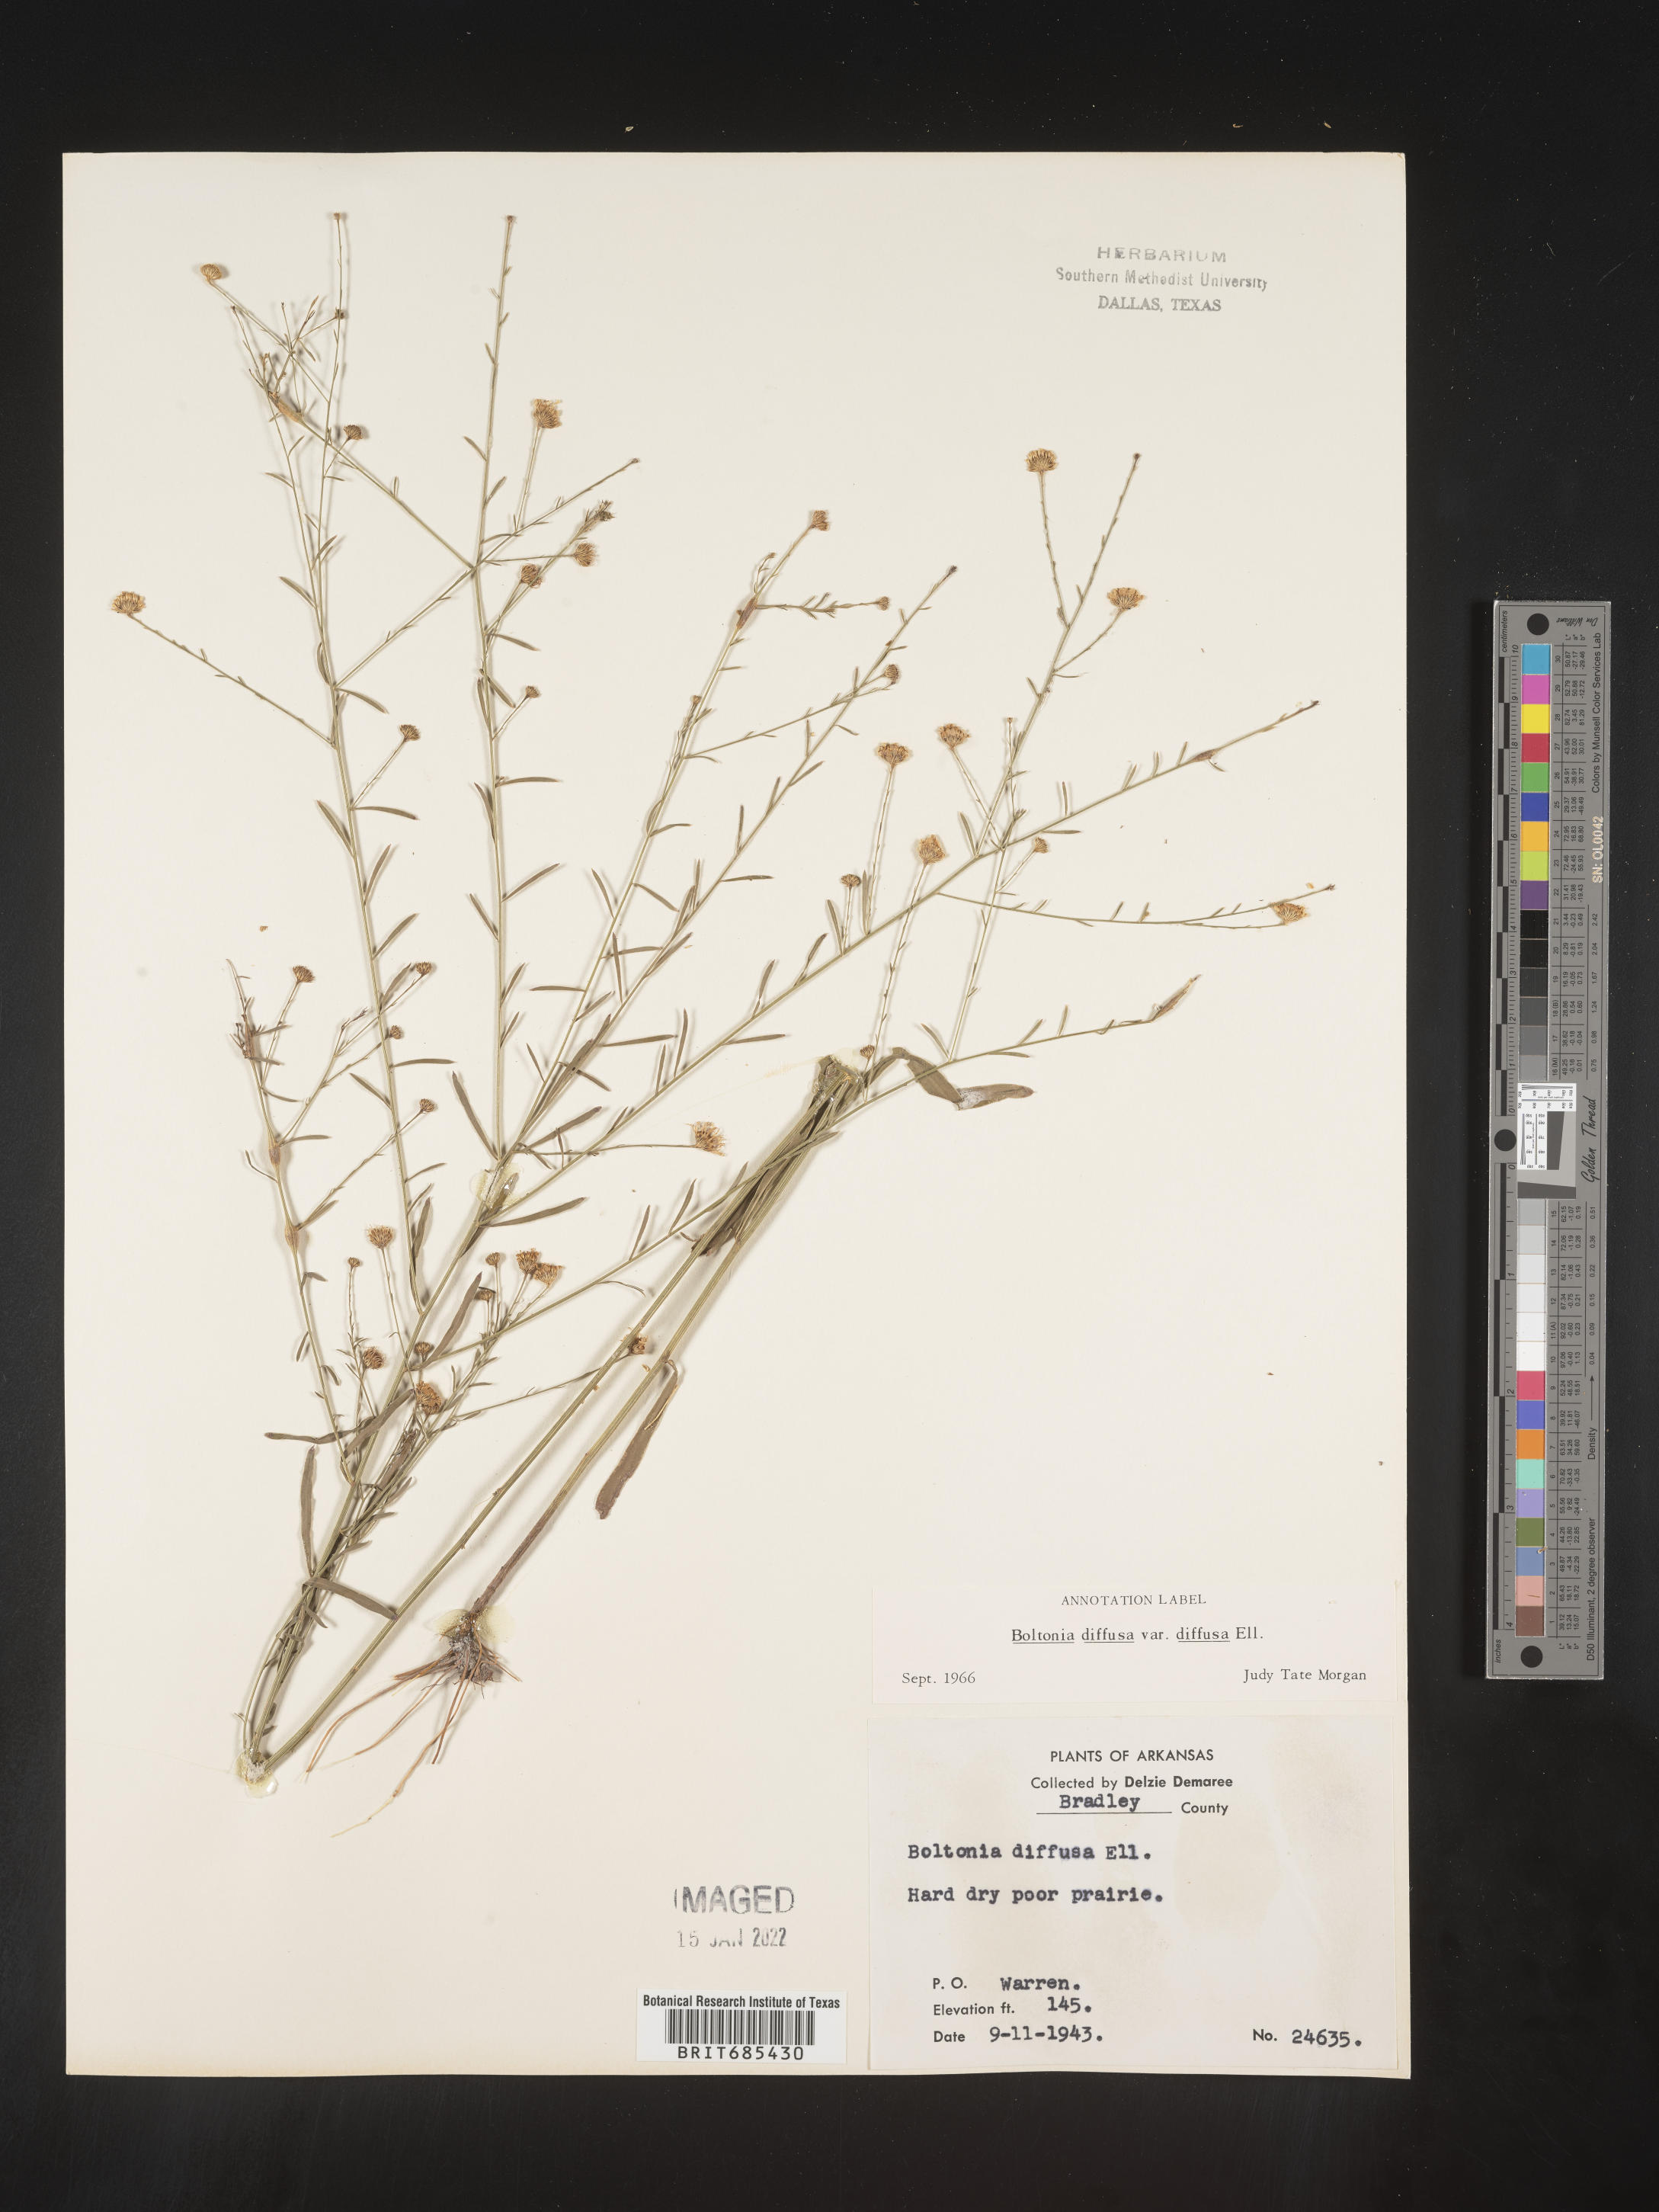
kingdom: Plantae
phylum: Tracheophyta
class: Magnoliopsida
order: Asterales
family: Asteraceae
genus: Boltonia
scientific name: Boltonia diffusa
